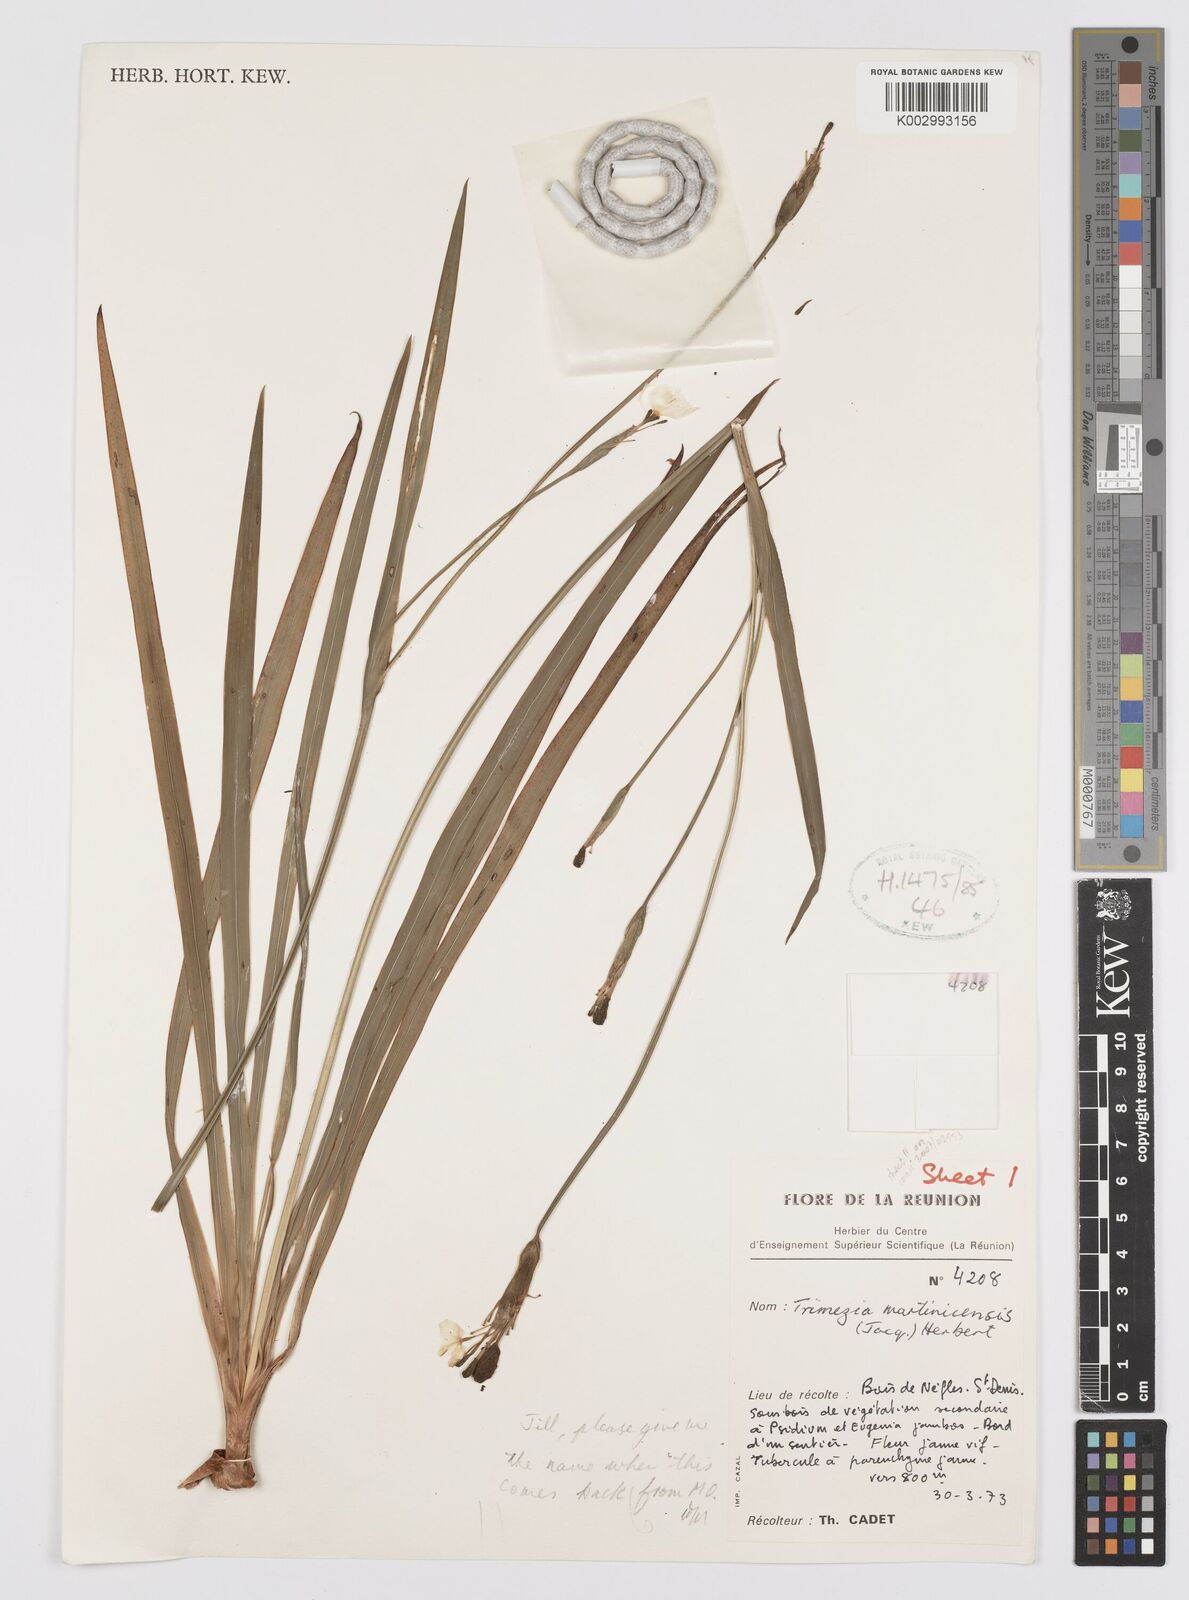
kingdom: Plantae
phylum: Tracheophyta
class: Liliopsida
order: Asparagales
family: Iridaceae
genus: Trimezia
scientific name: Trimezia martinicensis
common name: Martinique trimezia
